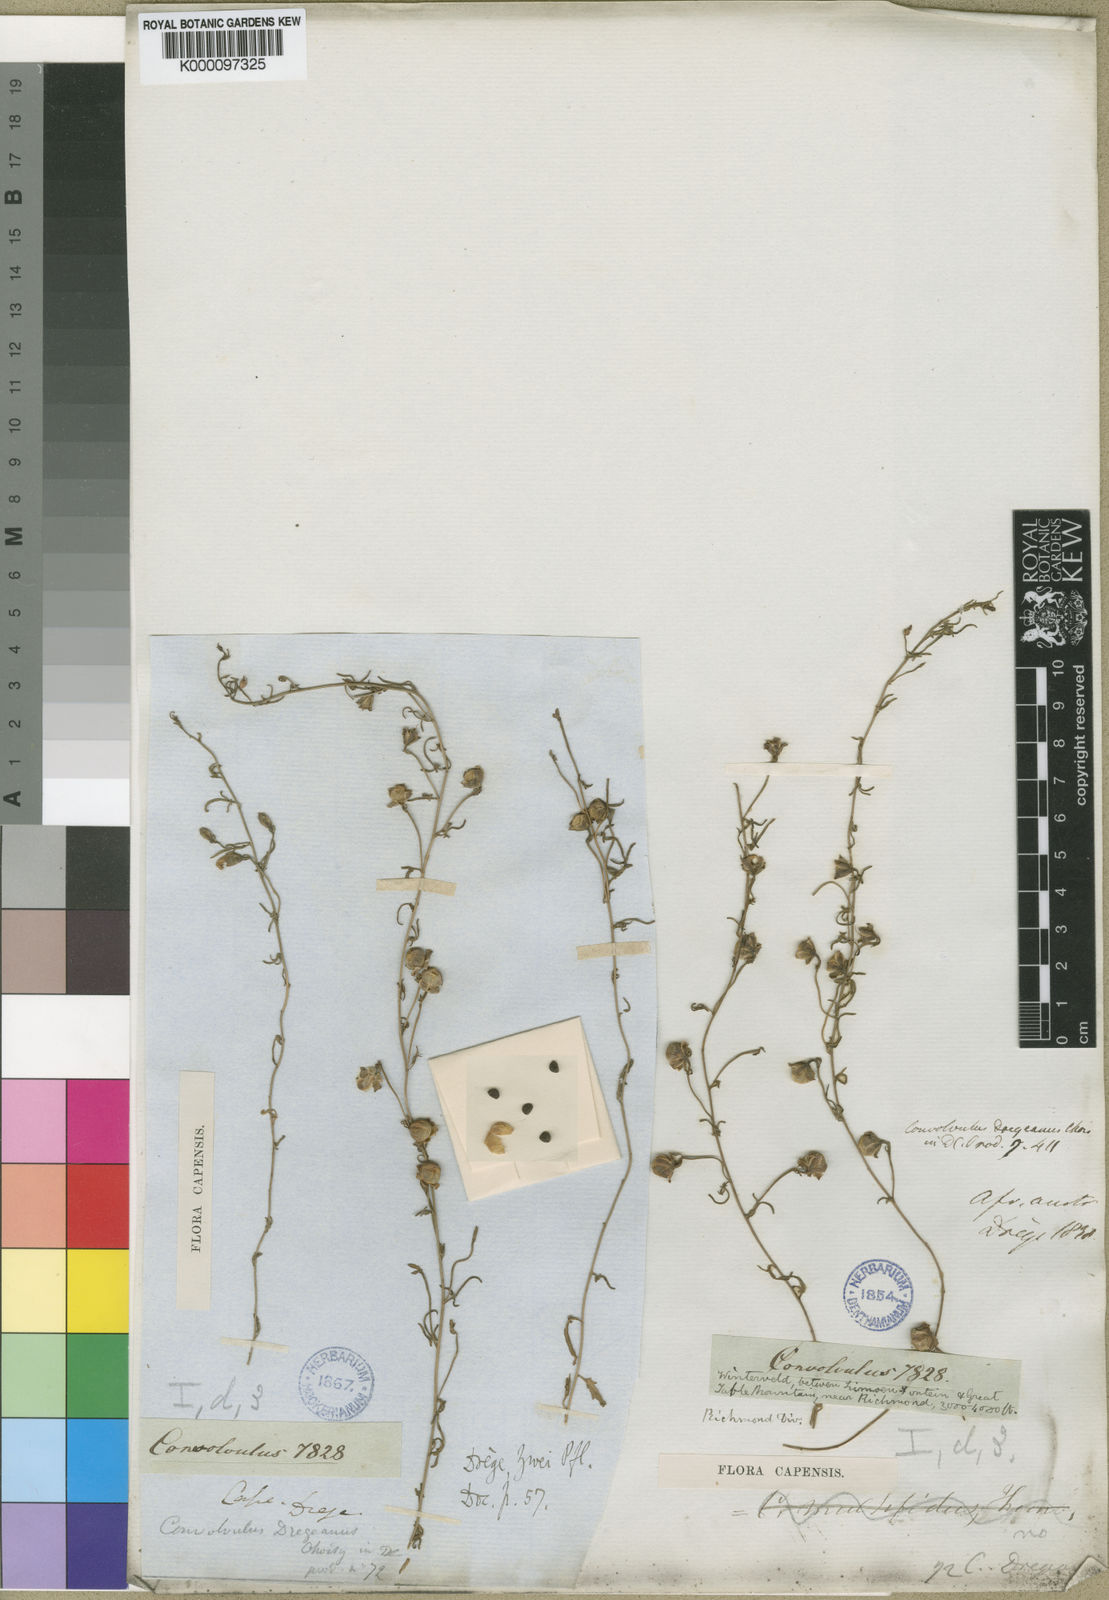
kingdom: Plantae
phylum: Tracheophyta
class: Magnoliopsida
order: Solanales
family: Convolvulaceae
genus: Convolvulus
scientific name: Convolvulus dregeanus
